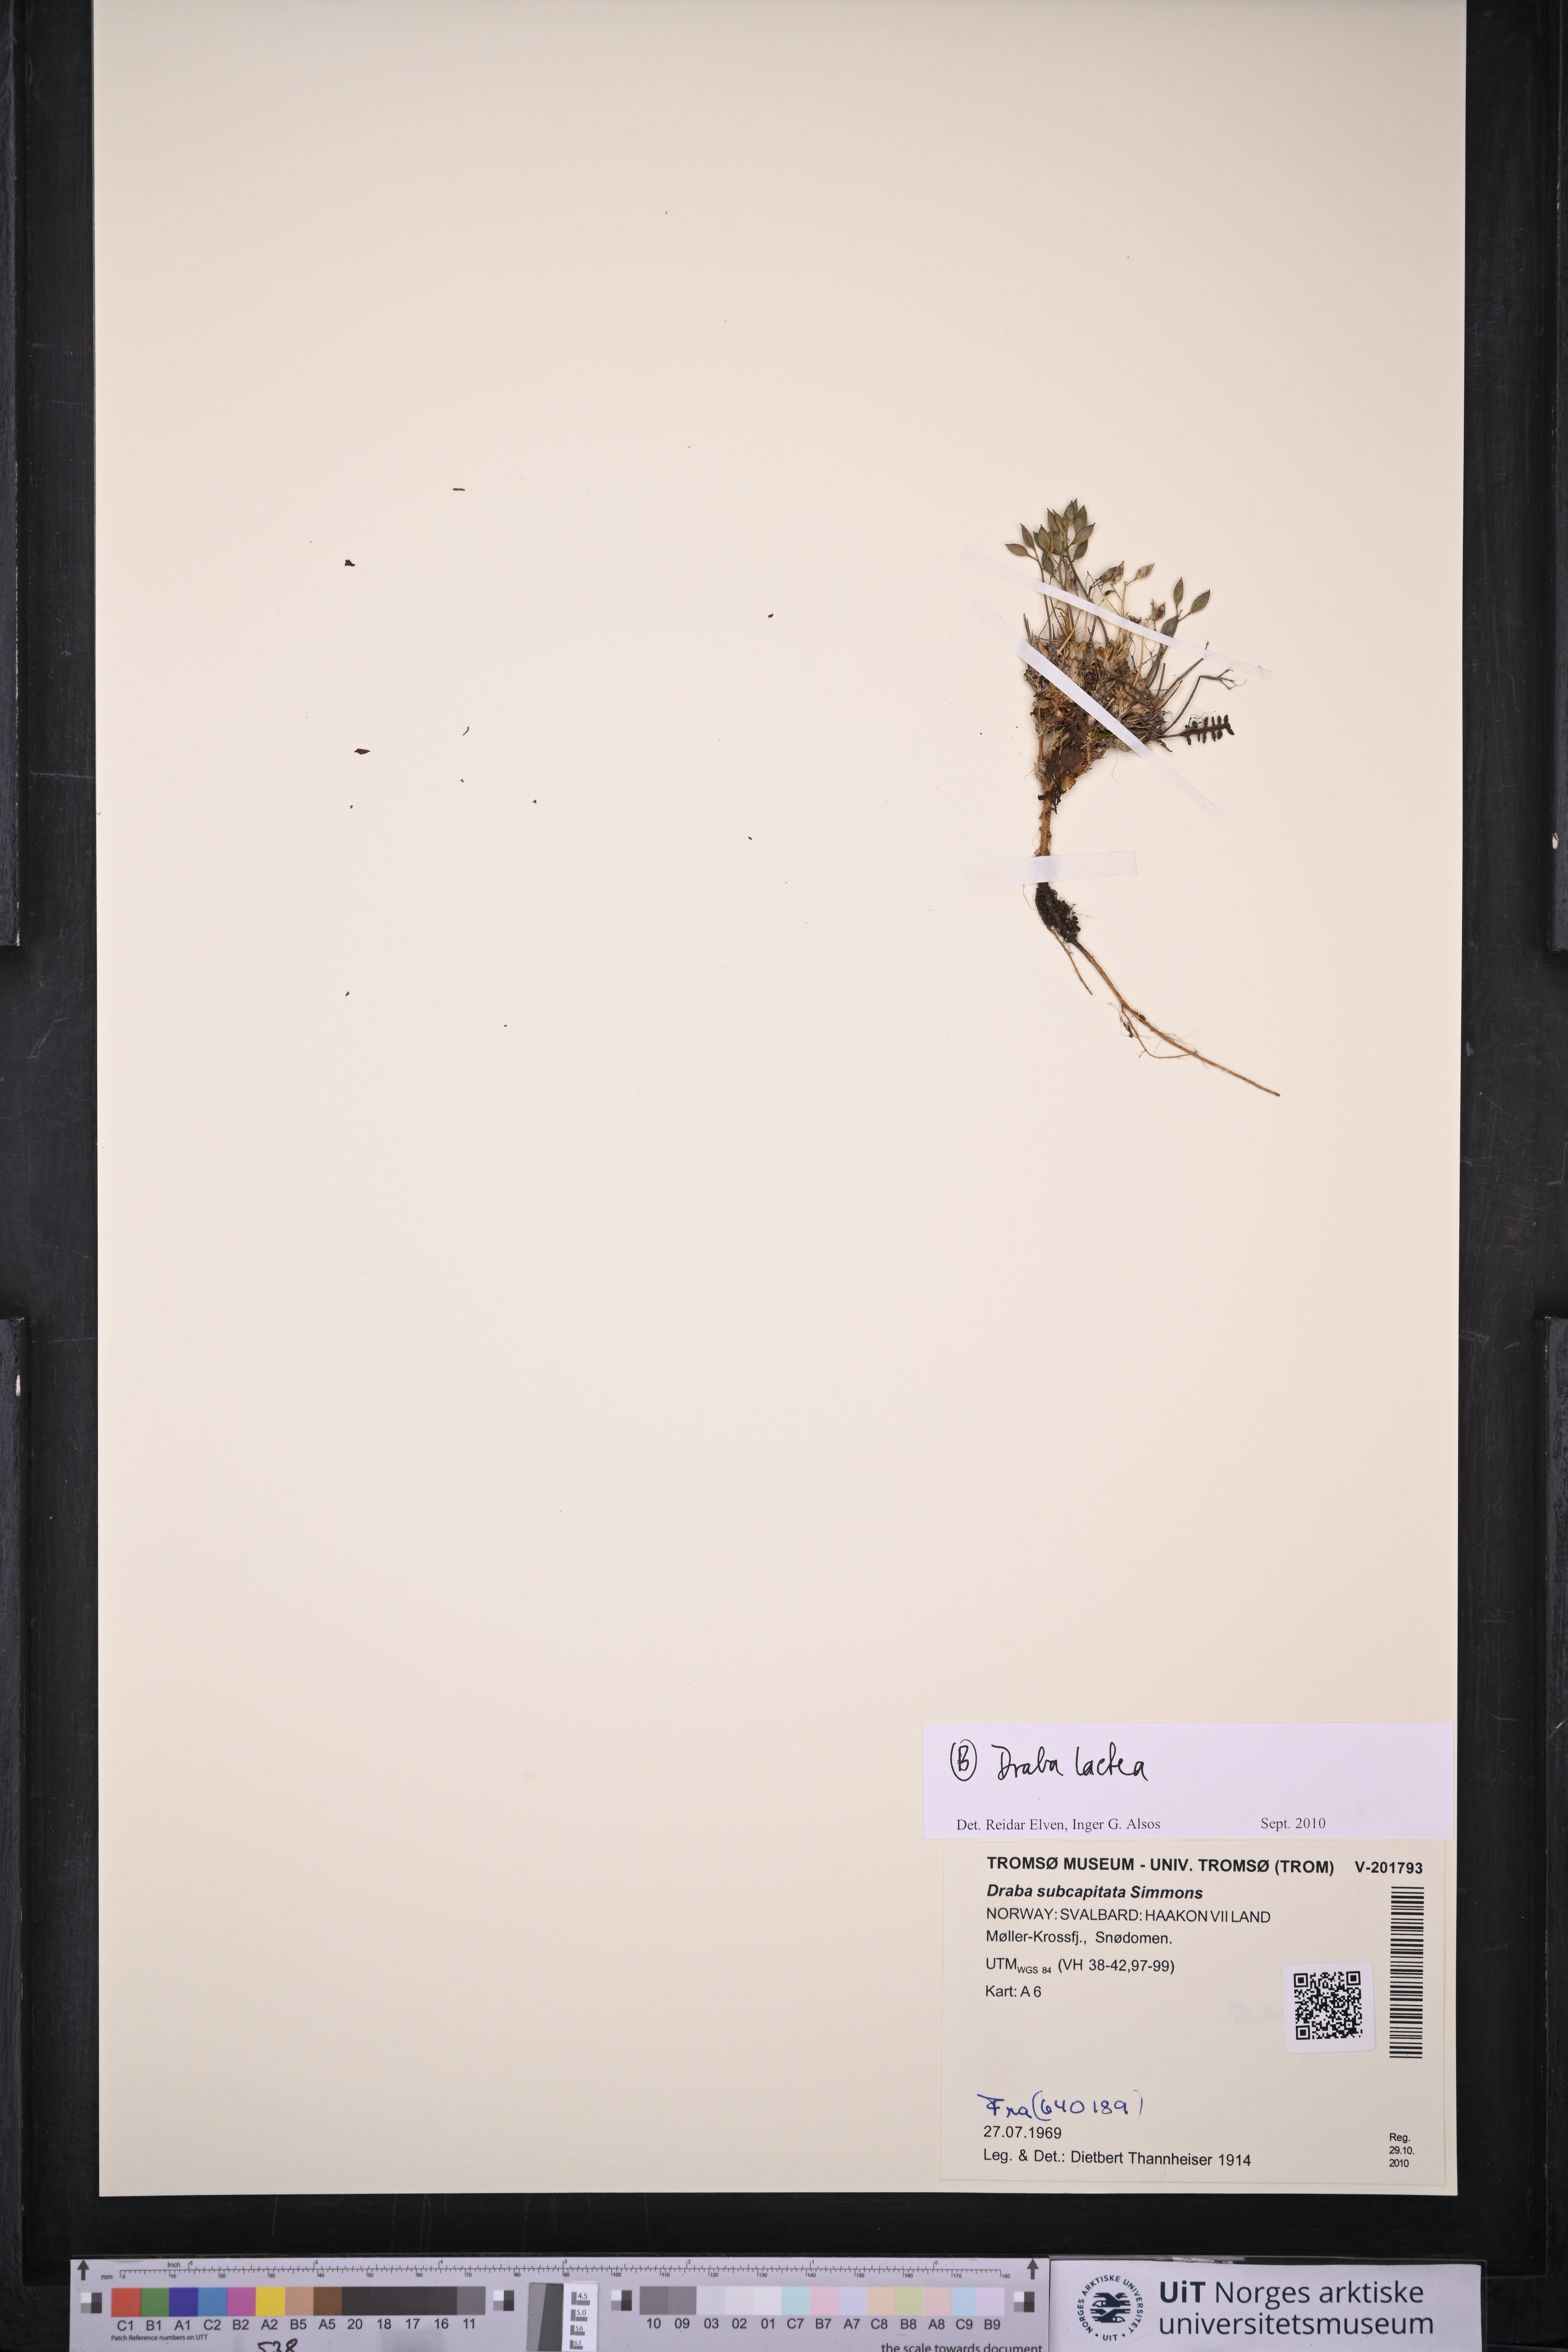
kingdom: Plantae
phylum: Tracheophyta
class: Magnoliopsida
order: Brassicales
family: Brassicaceae
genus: Draba
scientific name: Draba lactea
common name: Milky draba
